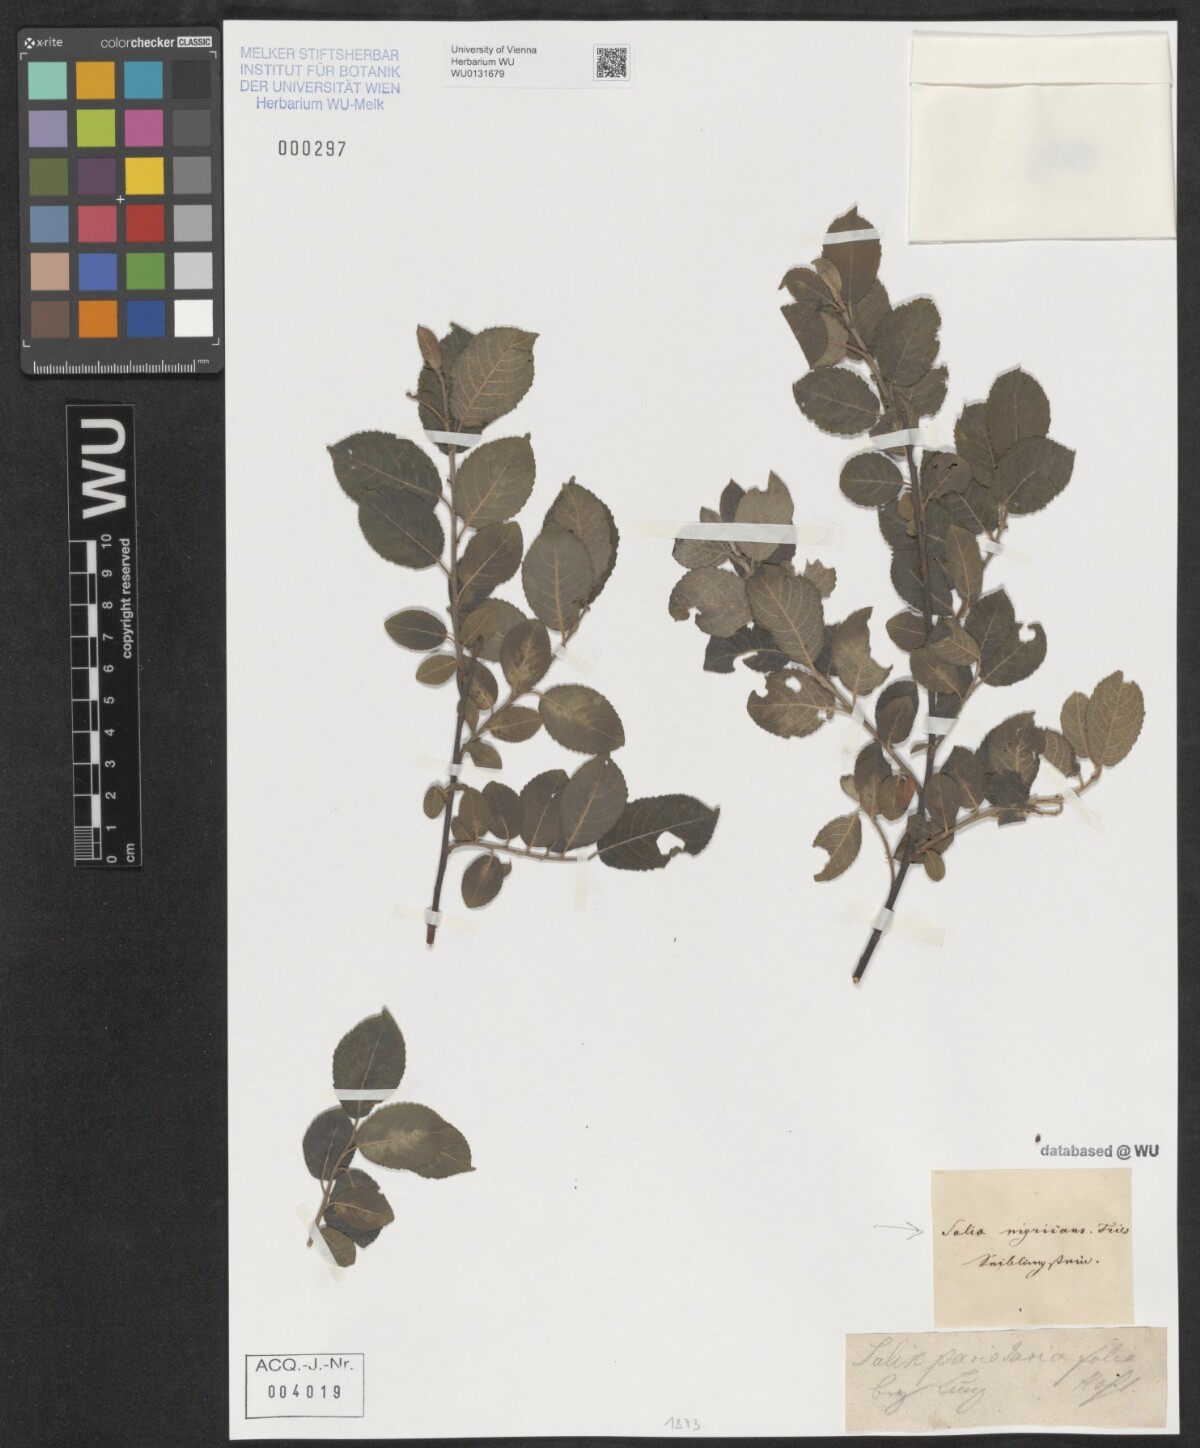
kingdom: Plantae
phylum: Tracheophyta
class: Magnoliopsida
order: Malpighiales
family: Salicaceae
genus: Salix
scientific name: Salix myrsinifolia
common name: Dark-leaved willow
